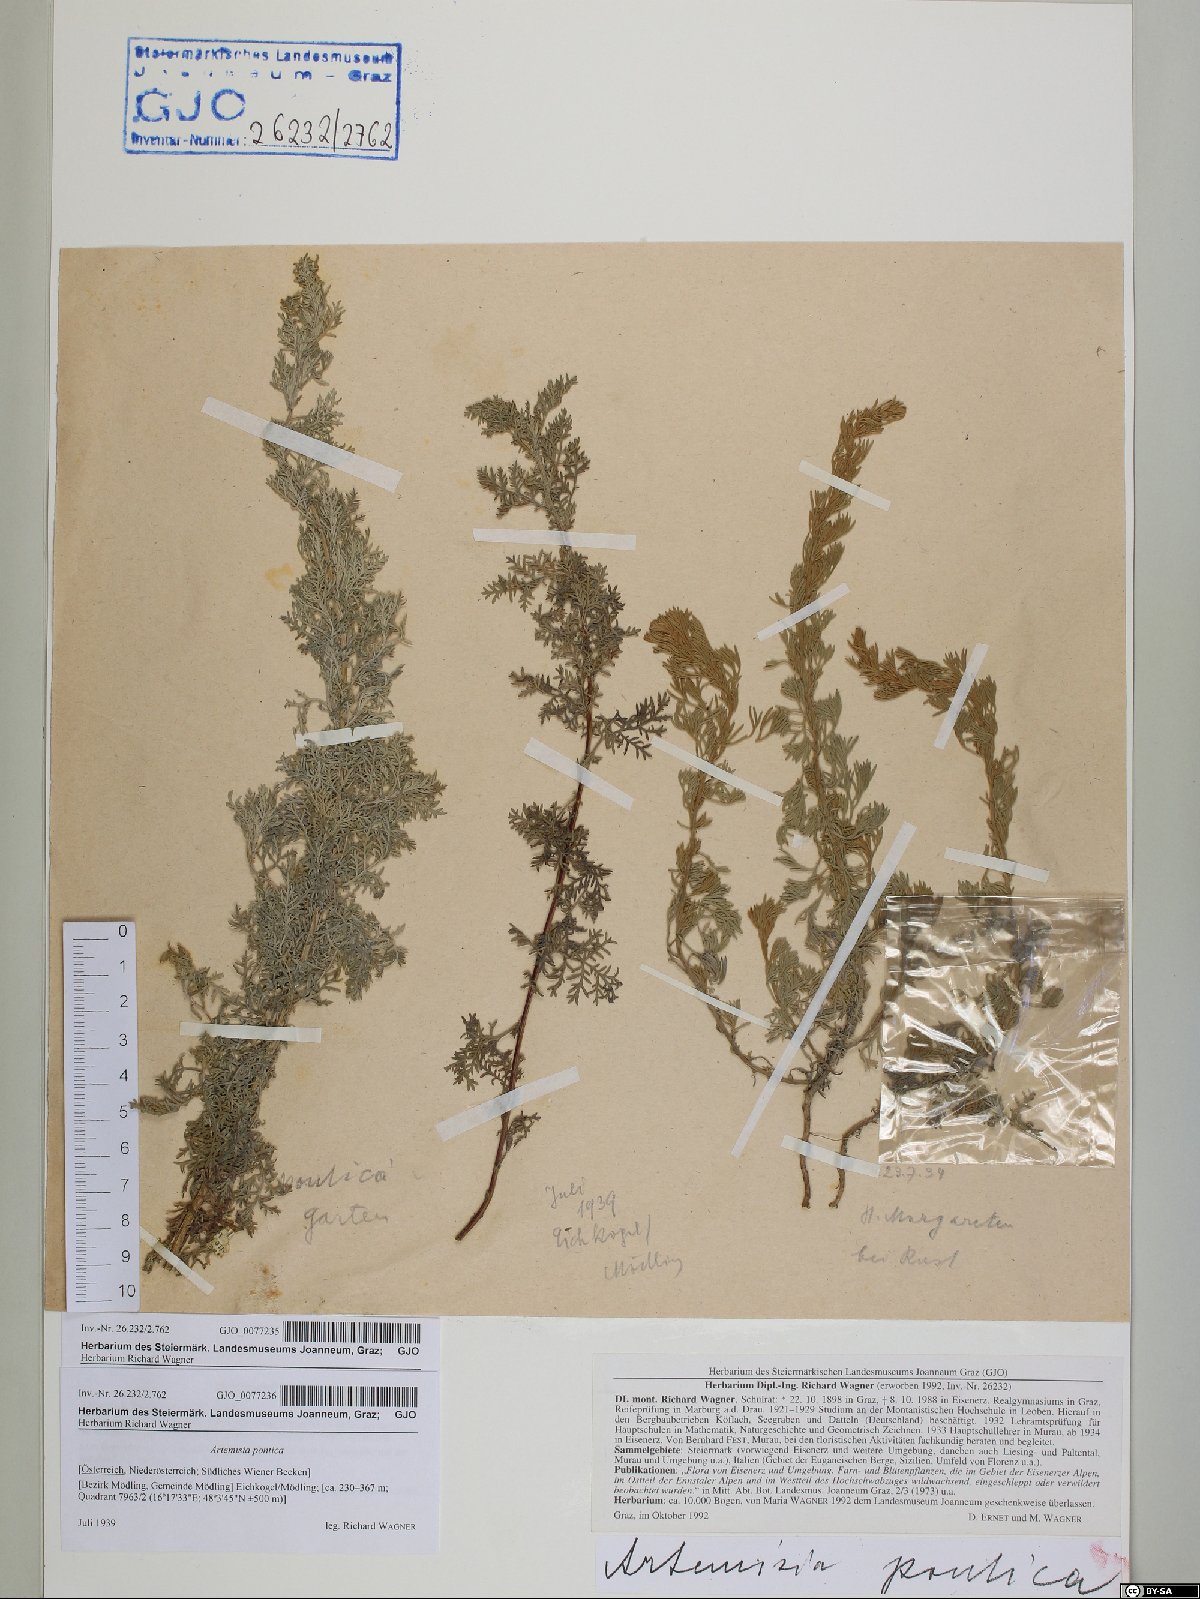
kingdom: Plantae
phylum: Tracheophyta
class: Magnoliopsida
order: Asterales
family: Asteraceae
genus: Artemisia
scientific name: Artemisia pontica
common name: Roman wormwood
